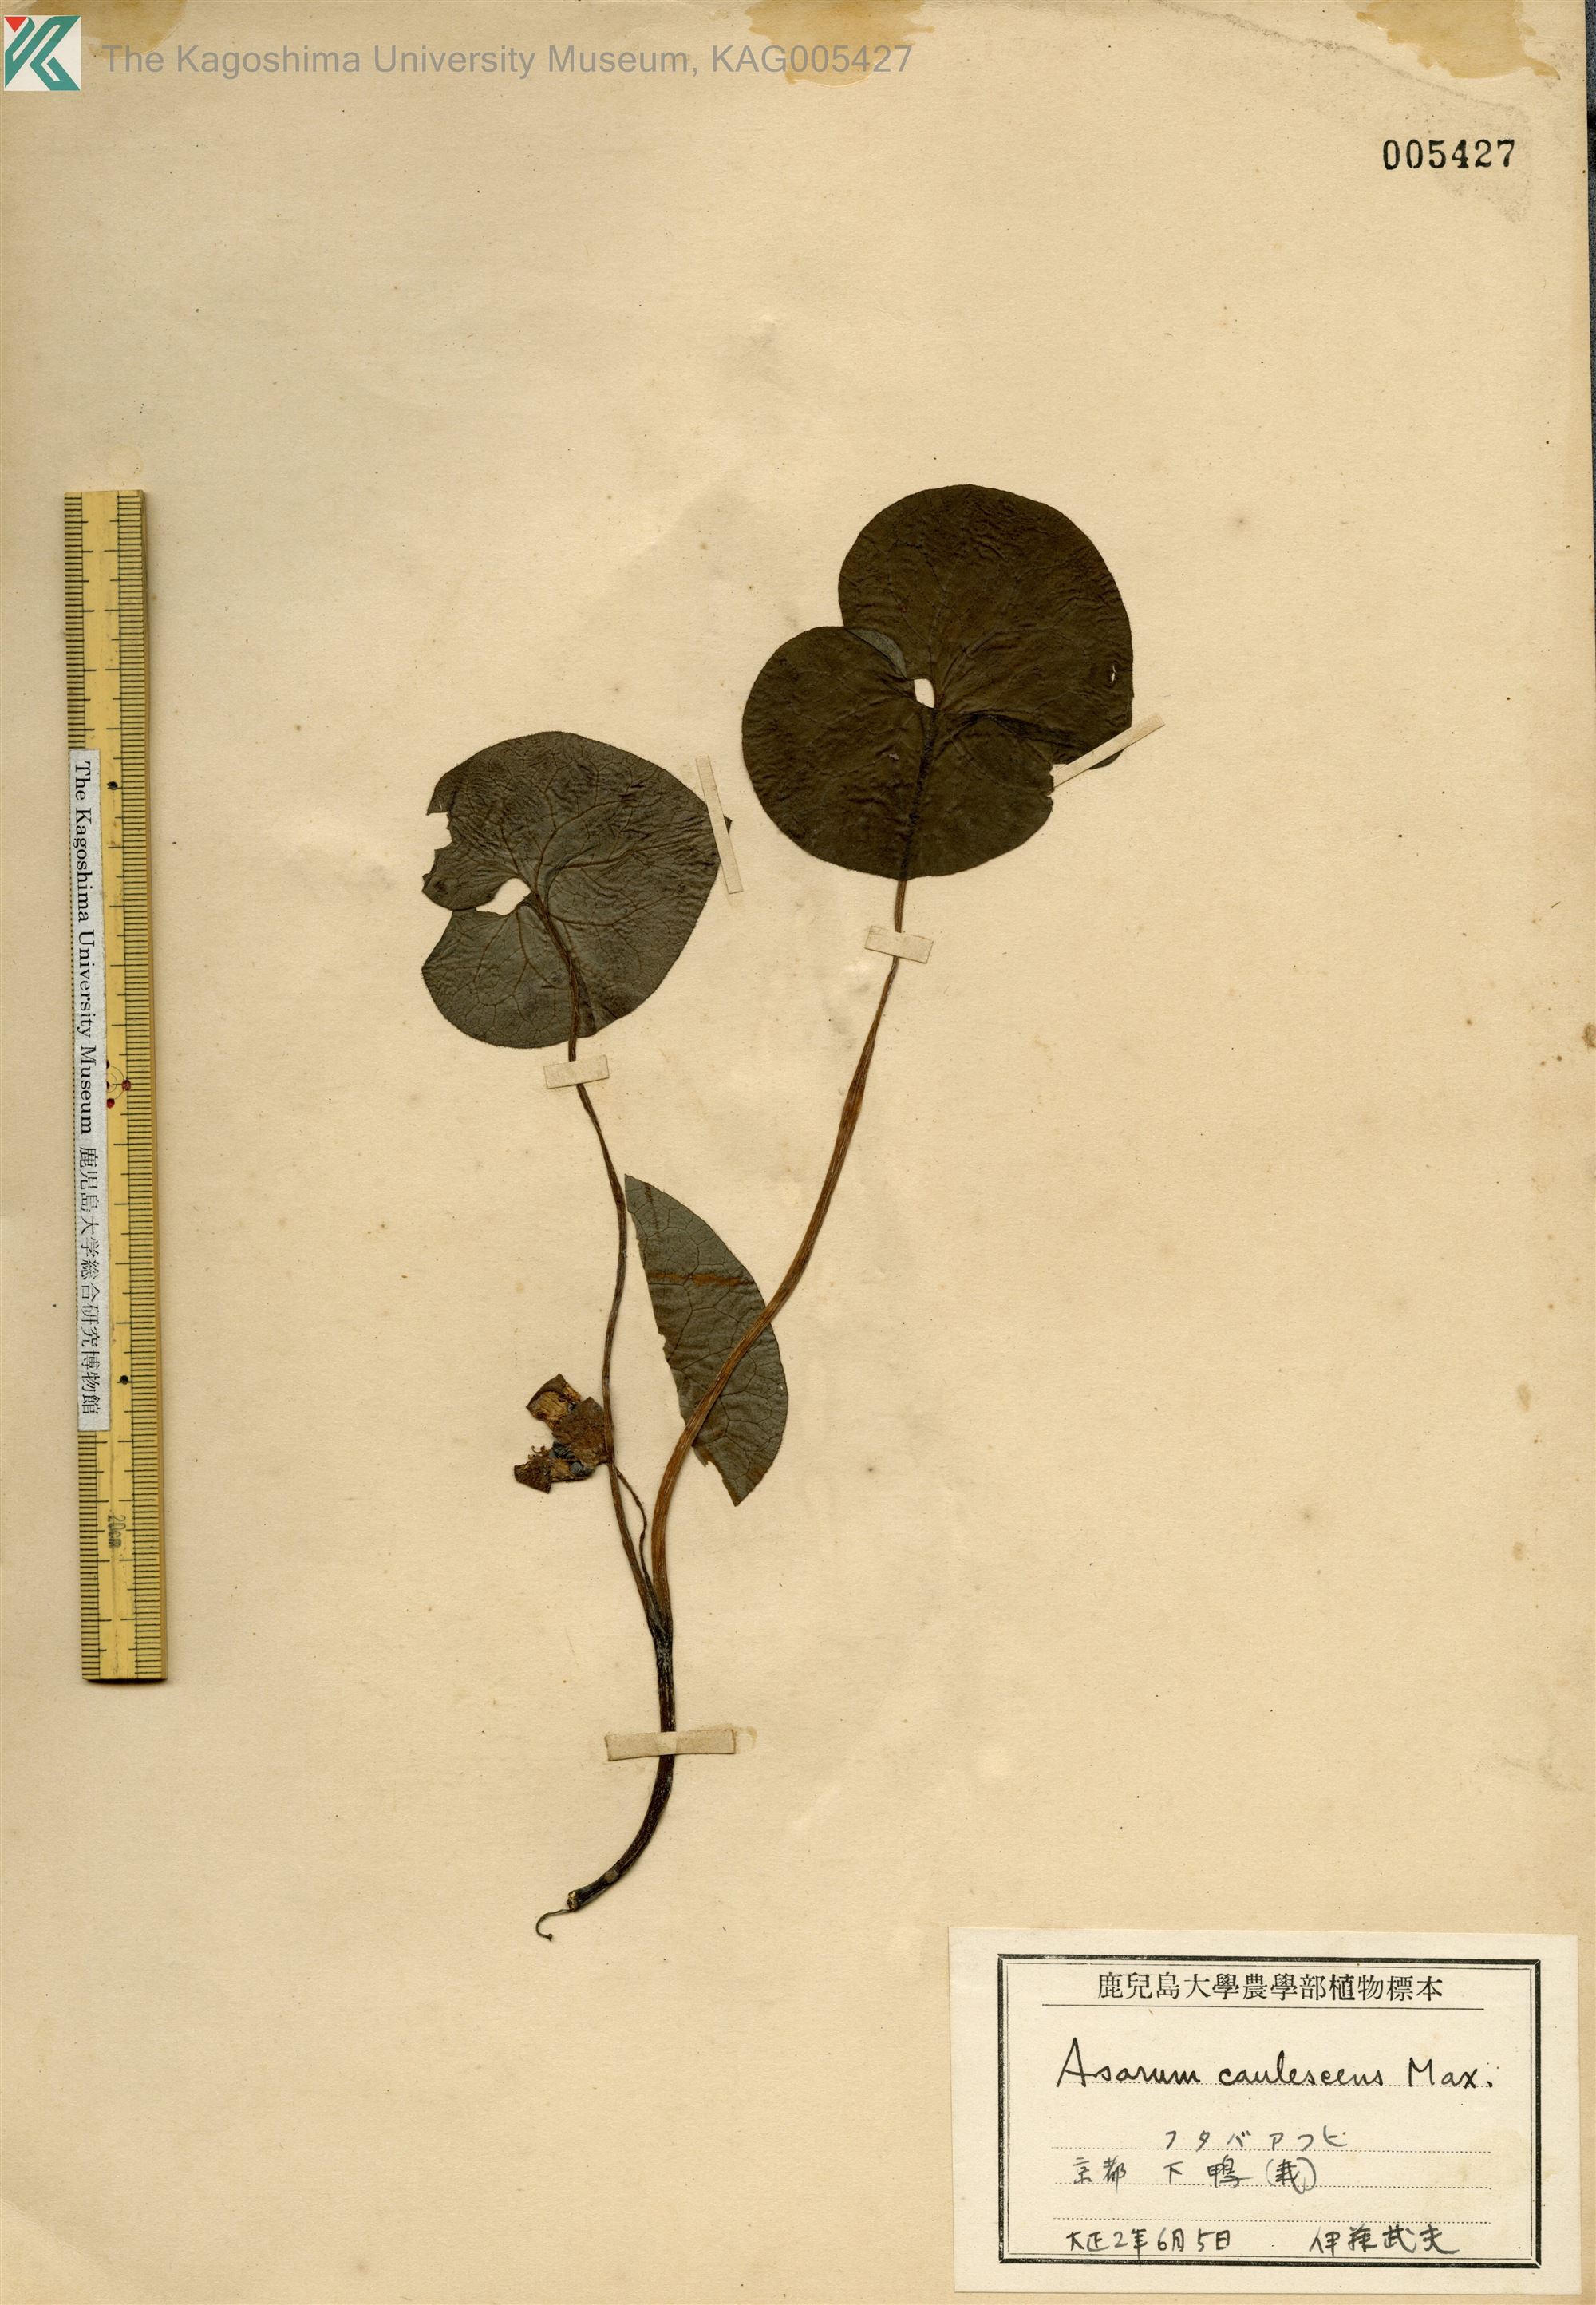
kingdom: Plantae
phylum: Tracheophyta
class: Magnoliopsida
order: Piperales
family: Aristolochiaceae
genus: Asarum
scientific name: Asarum caulescens
